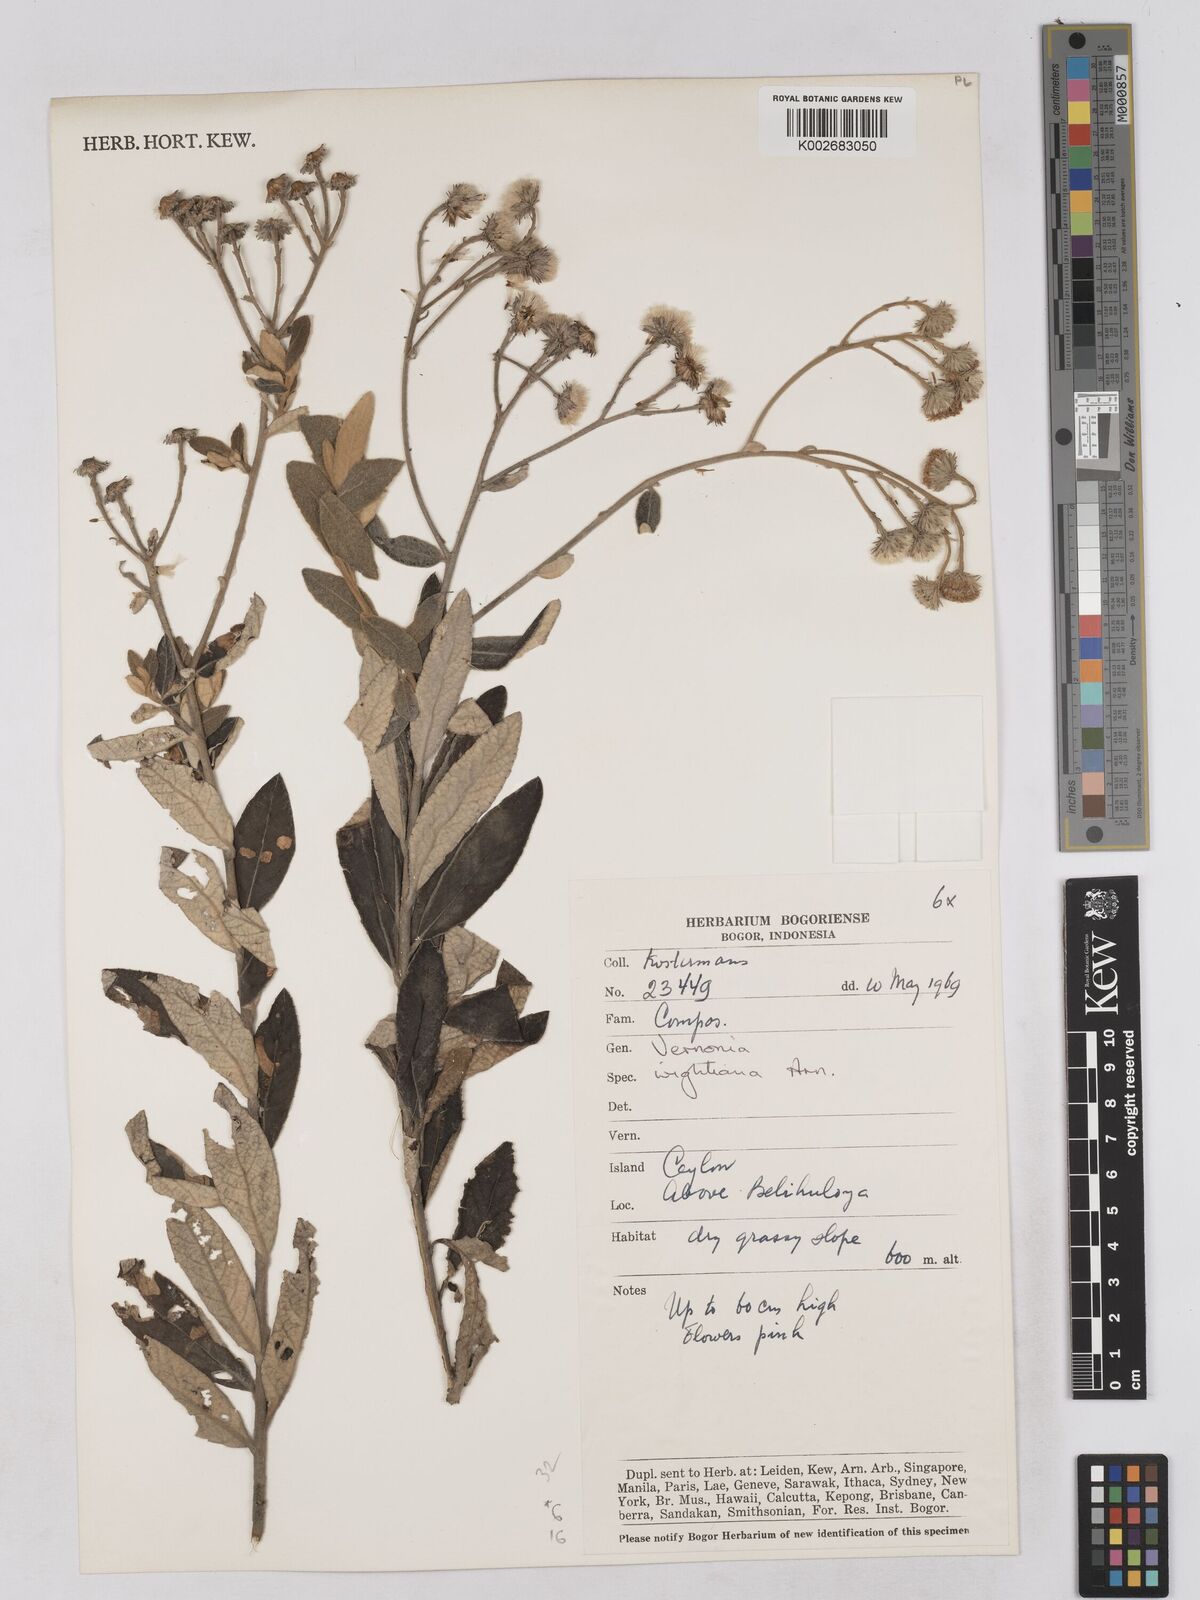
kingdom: Plantae
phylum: Tracheophyta
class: Magnoliopsida
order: Asterales
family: Asteraceae
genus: Uniyala
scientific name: Uniyala wightiana
